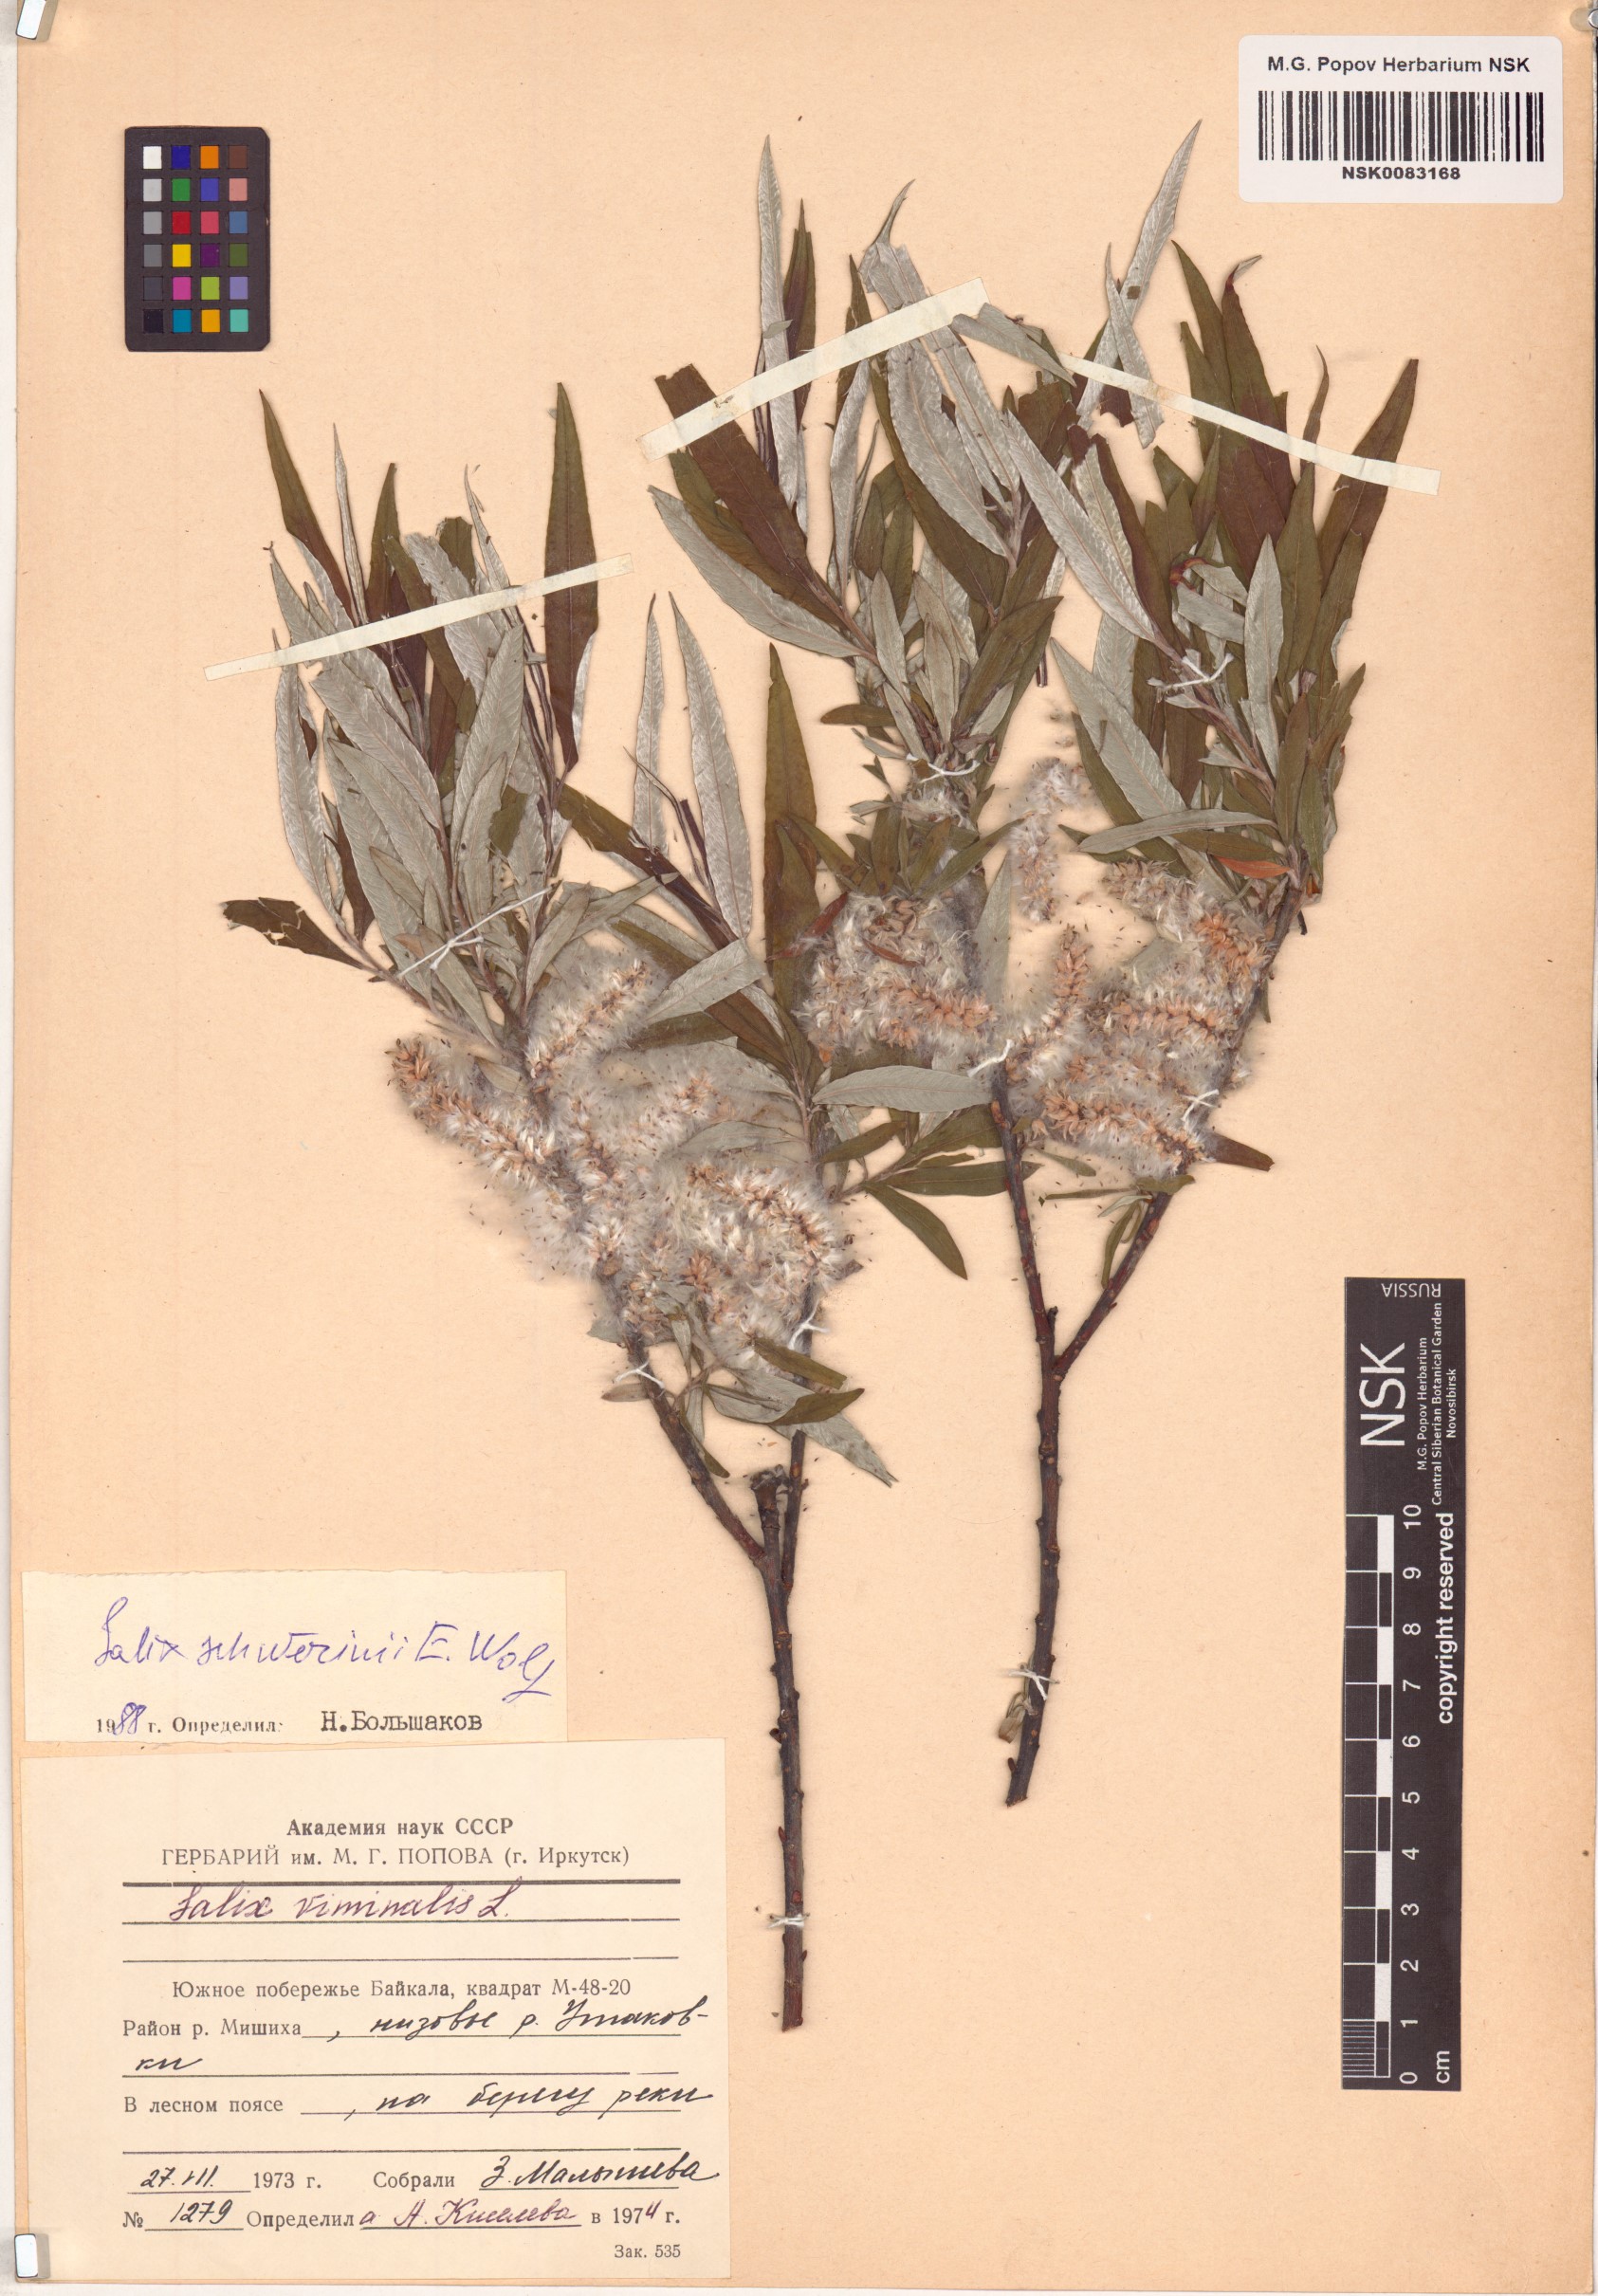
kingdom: Plantae
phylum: Tracheophyta
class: Magnoliopsida
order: Malpighiales
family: Salicaceae
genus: Salix
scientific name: Salix schwerinii
